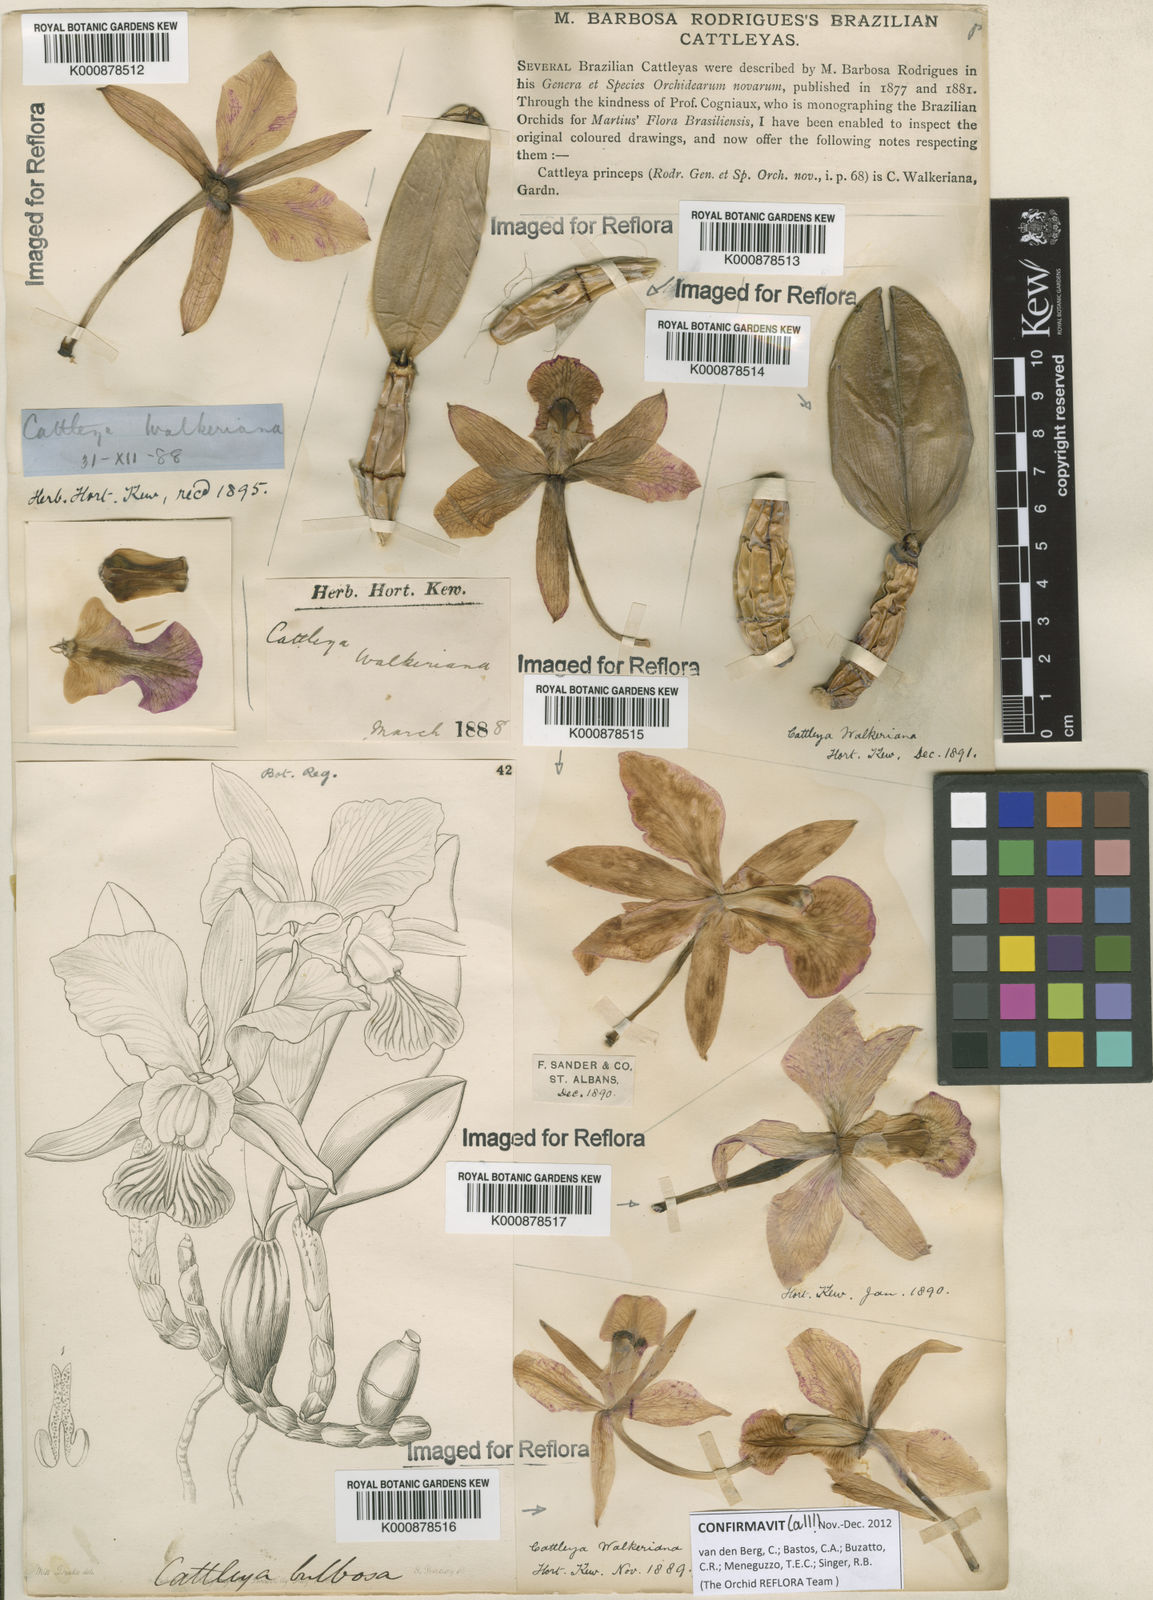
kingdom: Plantae
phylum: Tracheophyta
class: Liliopsida
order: Asparagales
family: Orchidaceae
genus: Cattleya
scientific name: Cattleya walkeriana
